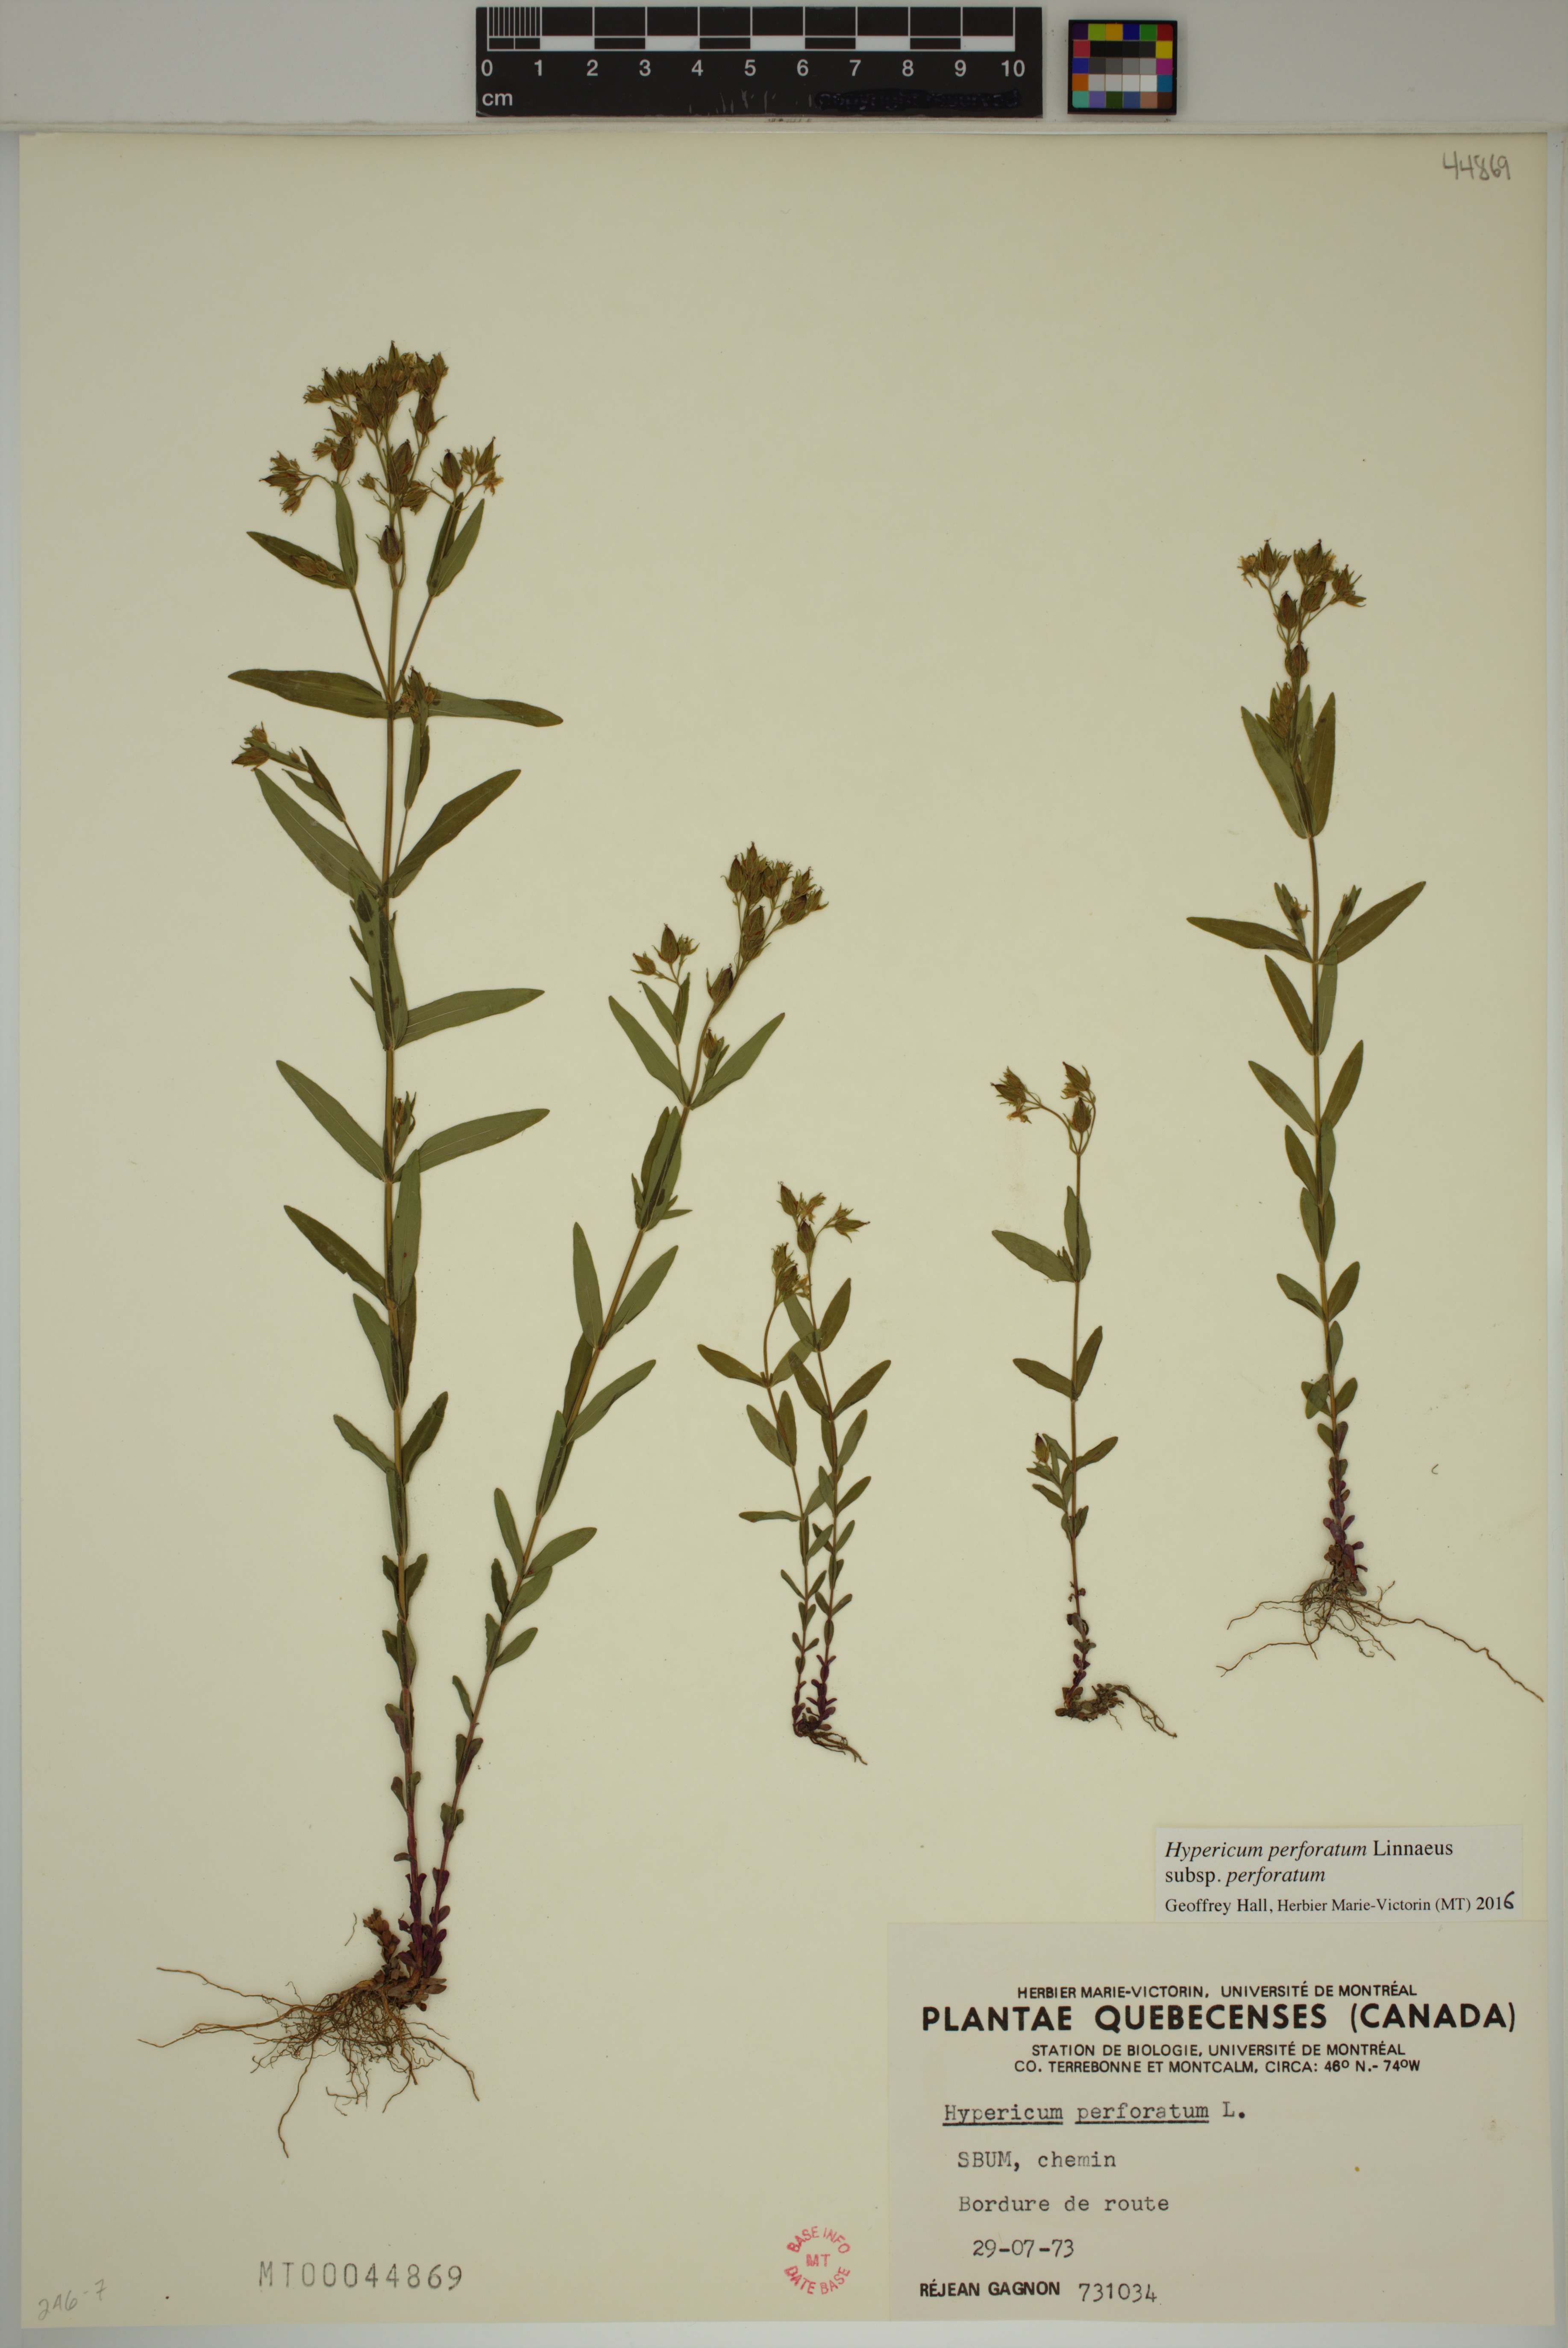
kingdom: Plantae
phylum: Tracheophyta
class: Magnoliopsida
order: Malpighiales
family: Hypericaceae
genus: Hypericum
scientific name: Hypericum perforatum
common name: Common st. johnswort
